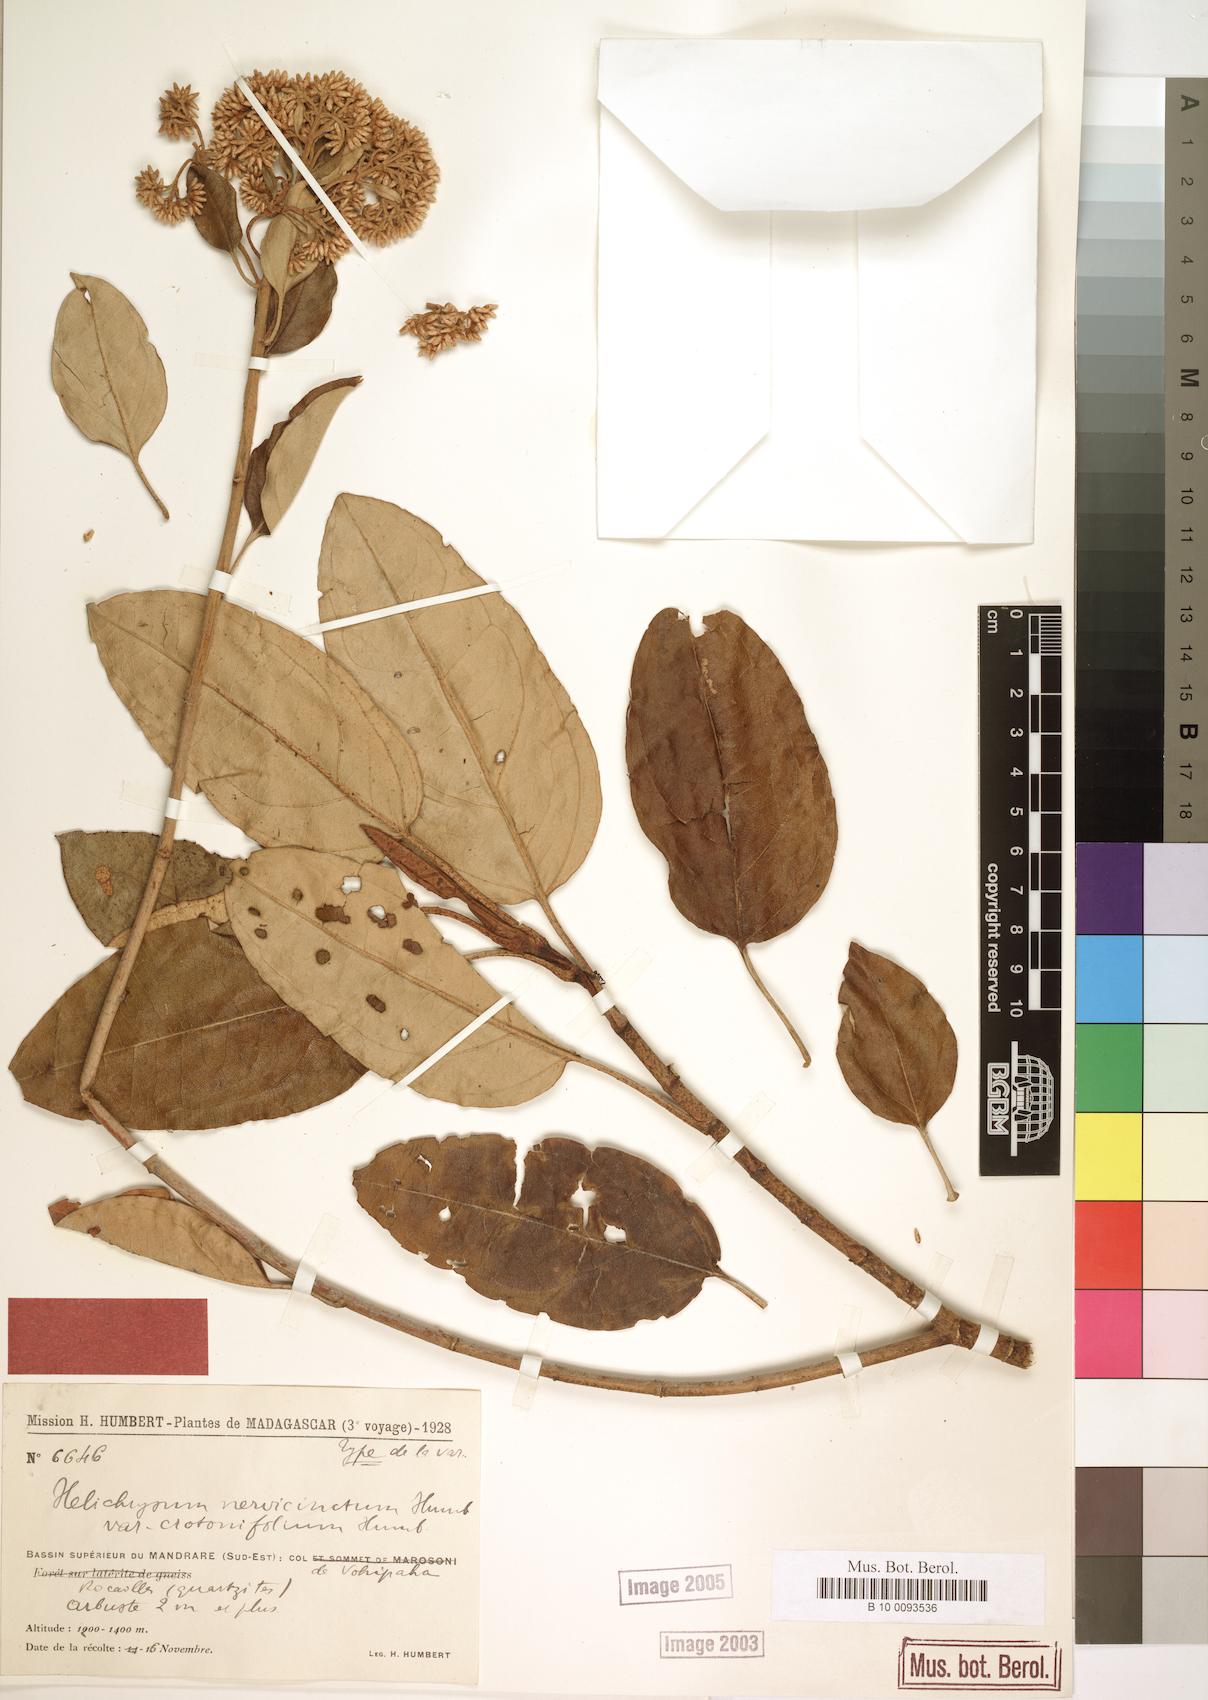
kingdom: Plantae
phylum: Tracheophyta
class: Magnoliopsida
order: Asterales
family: Asteraceae
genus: Helichrysum
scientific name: Helichrysum nervicinctum
